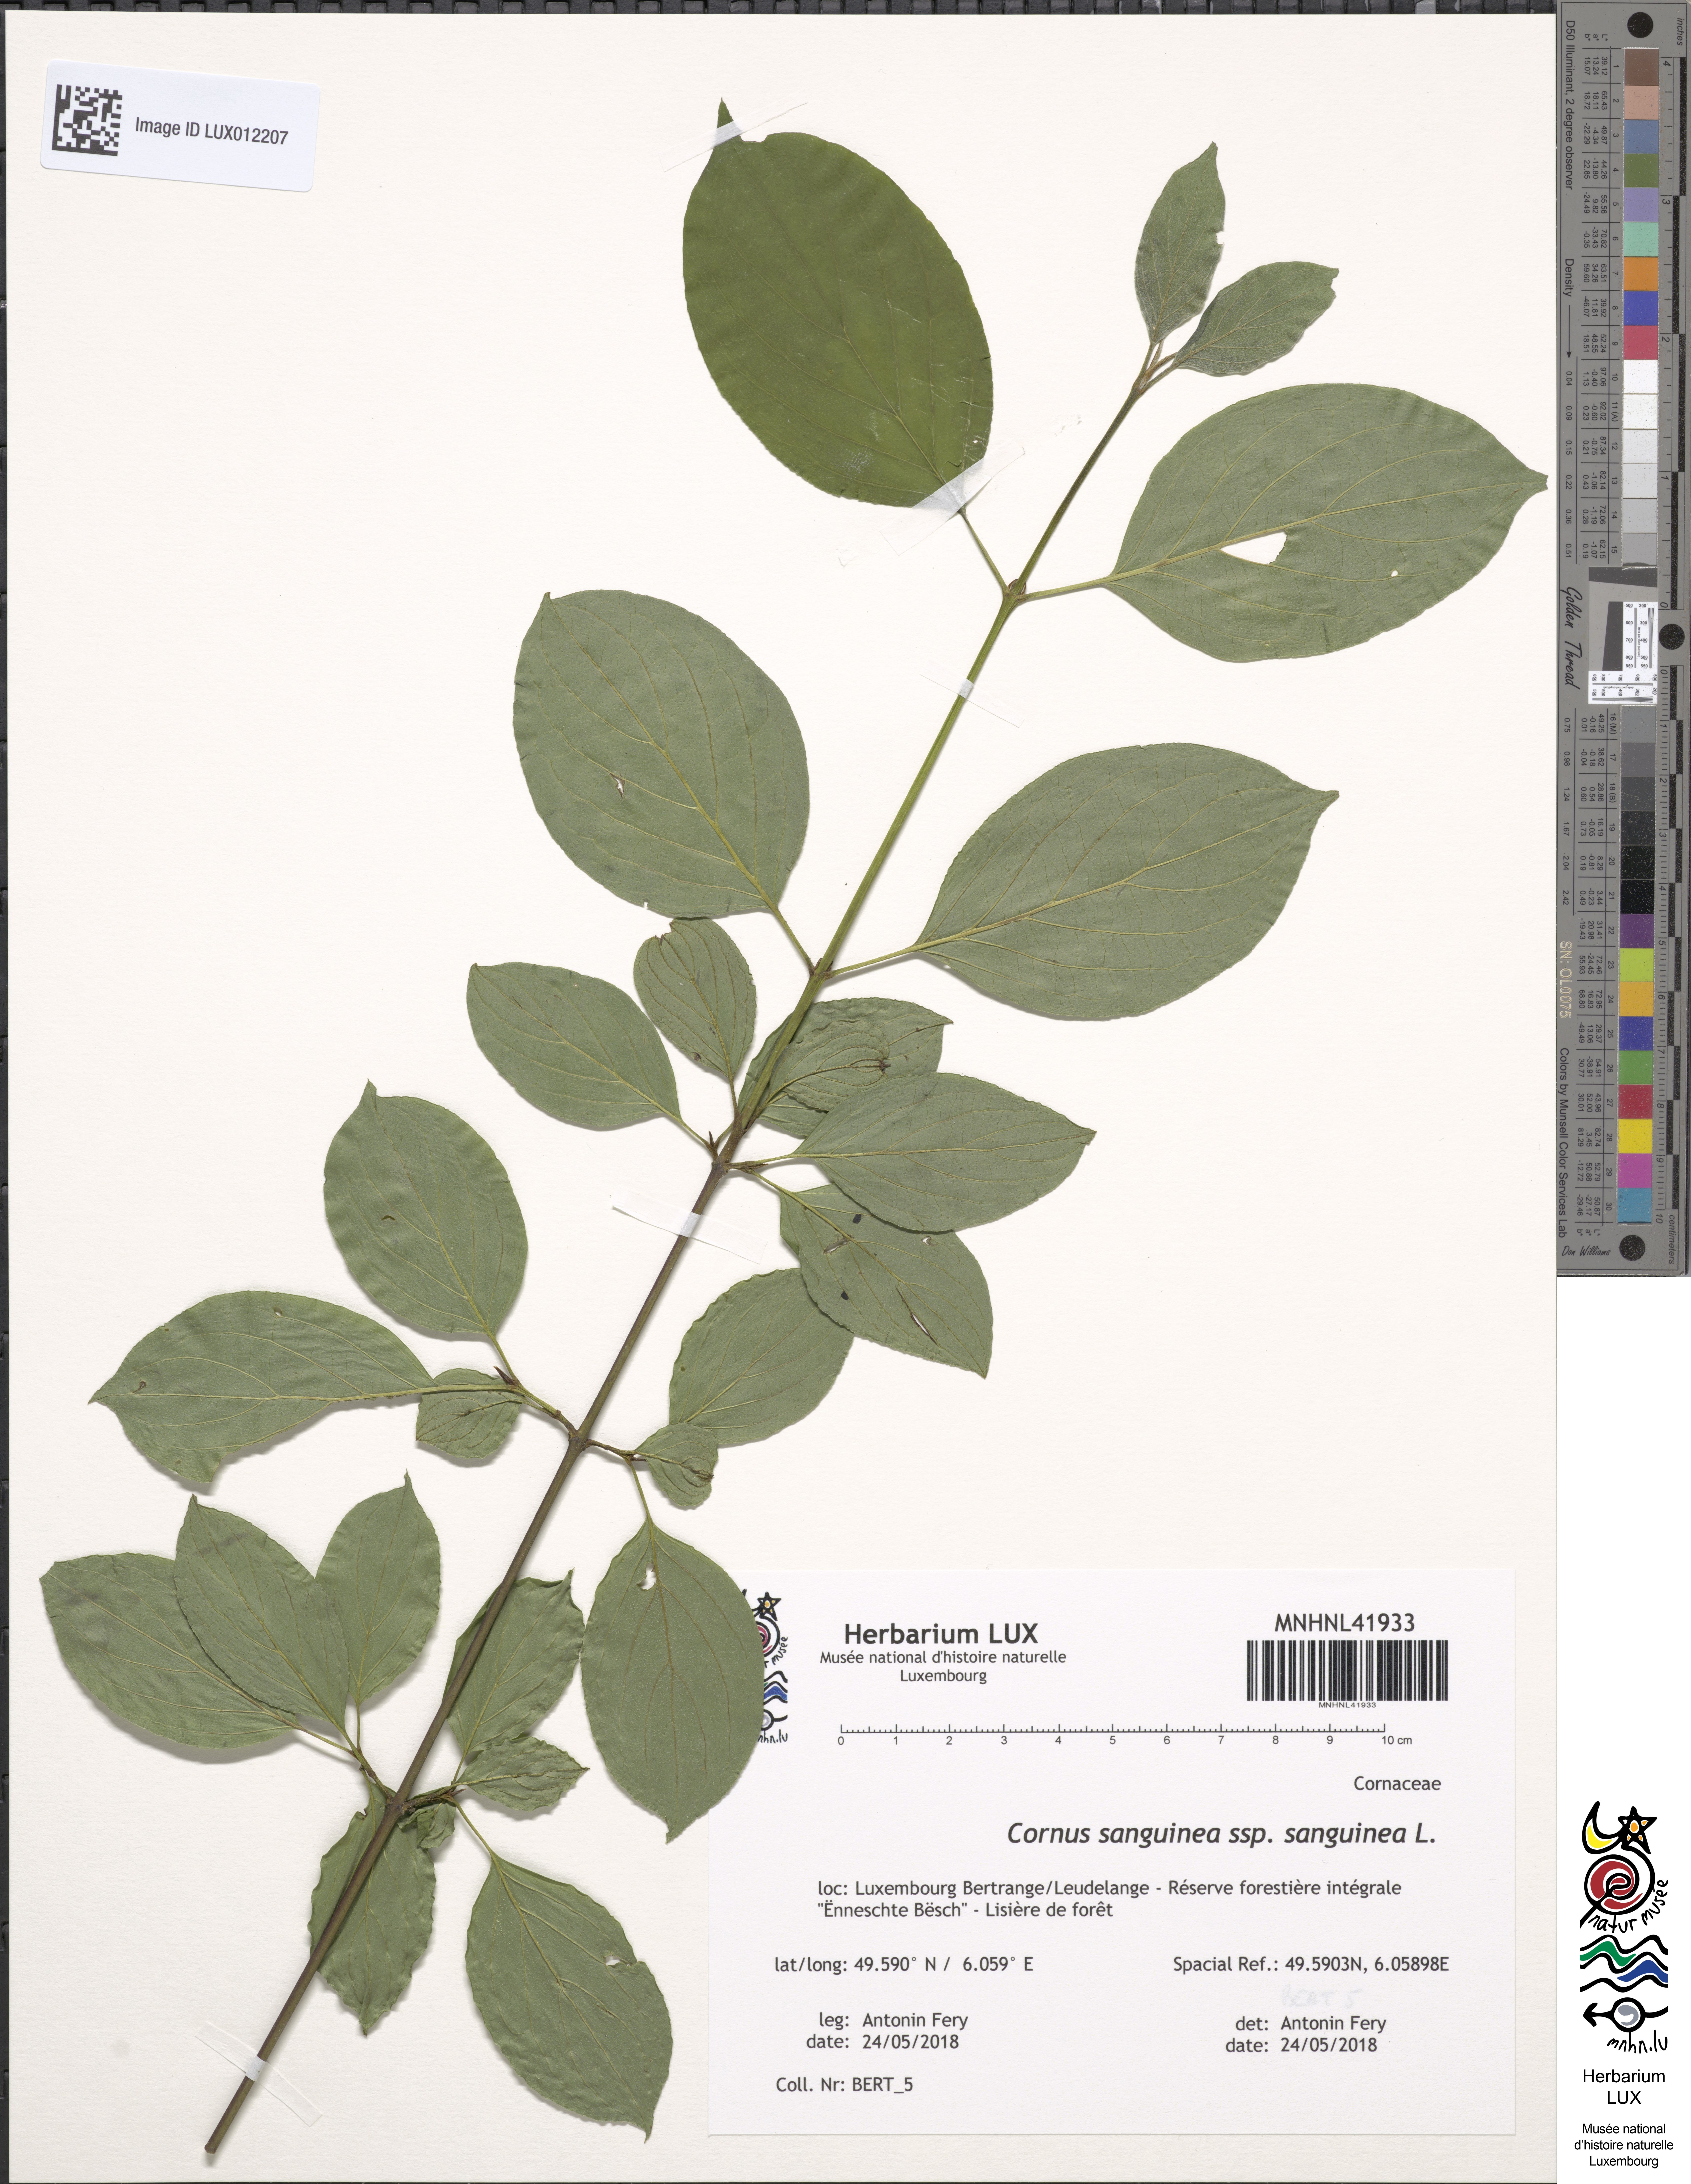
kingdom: Plantae
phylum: Tracheophyta
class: Magnoliopsida
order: Cornales
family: Cornaceae
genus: Cornus
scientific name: Cornus sanguinea
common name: Dogwood
